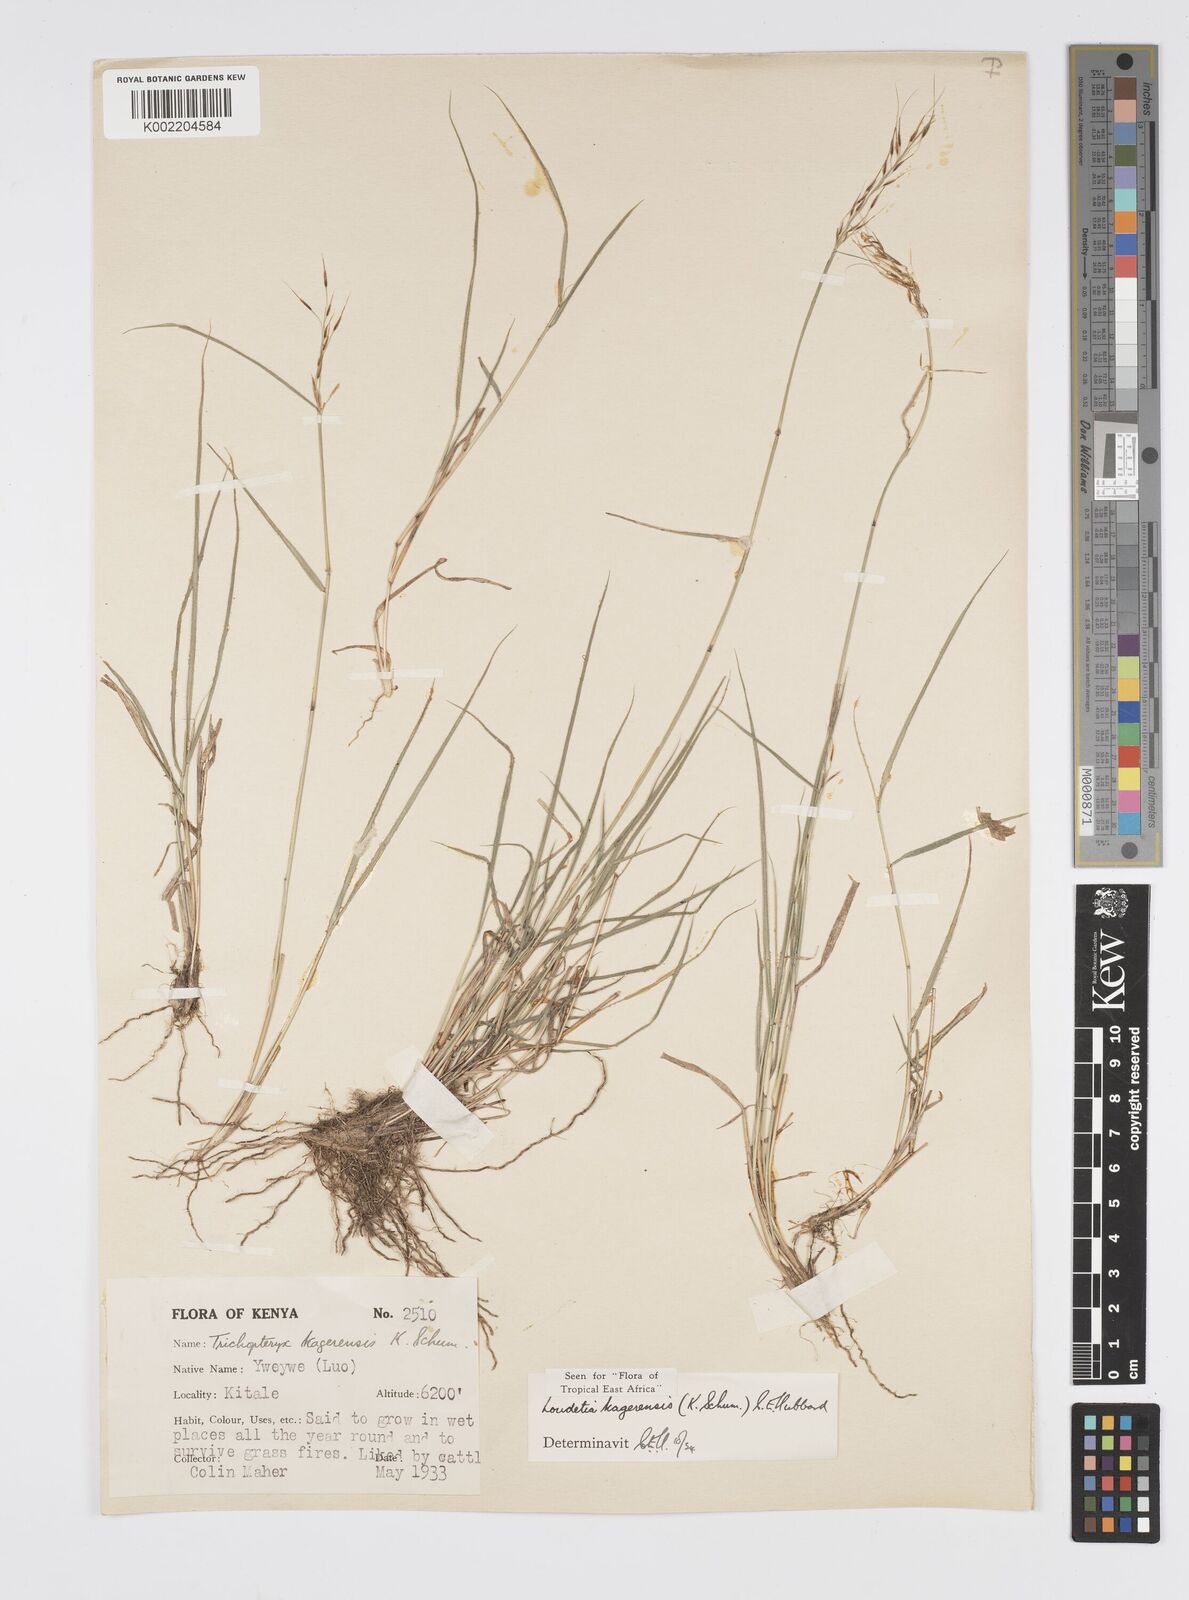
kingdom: Plantae
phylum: Tracheophyta
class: Liliopsida
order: Poales
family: Poaceae
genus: Loudetia
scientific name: Loudetia kagerensis
